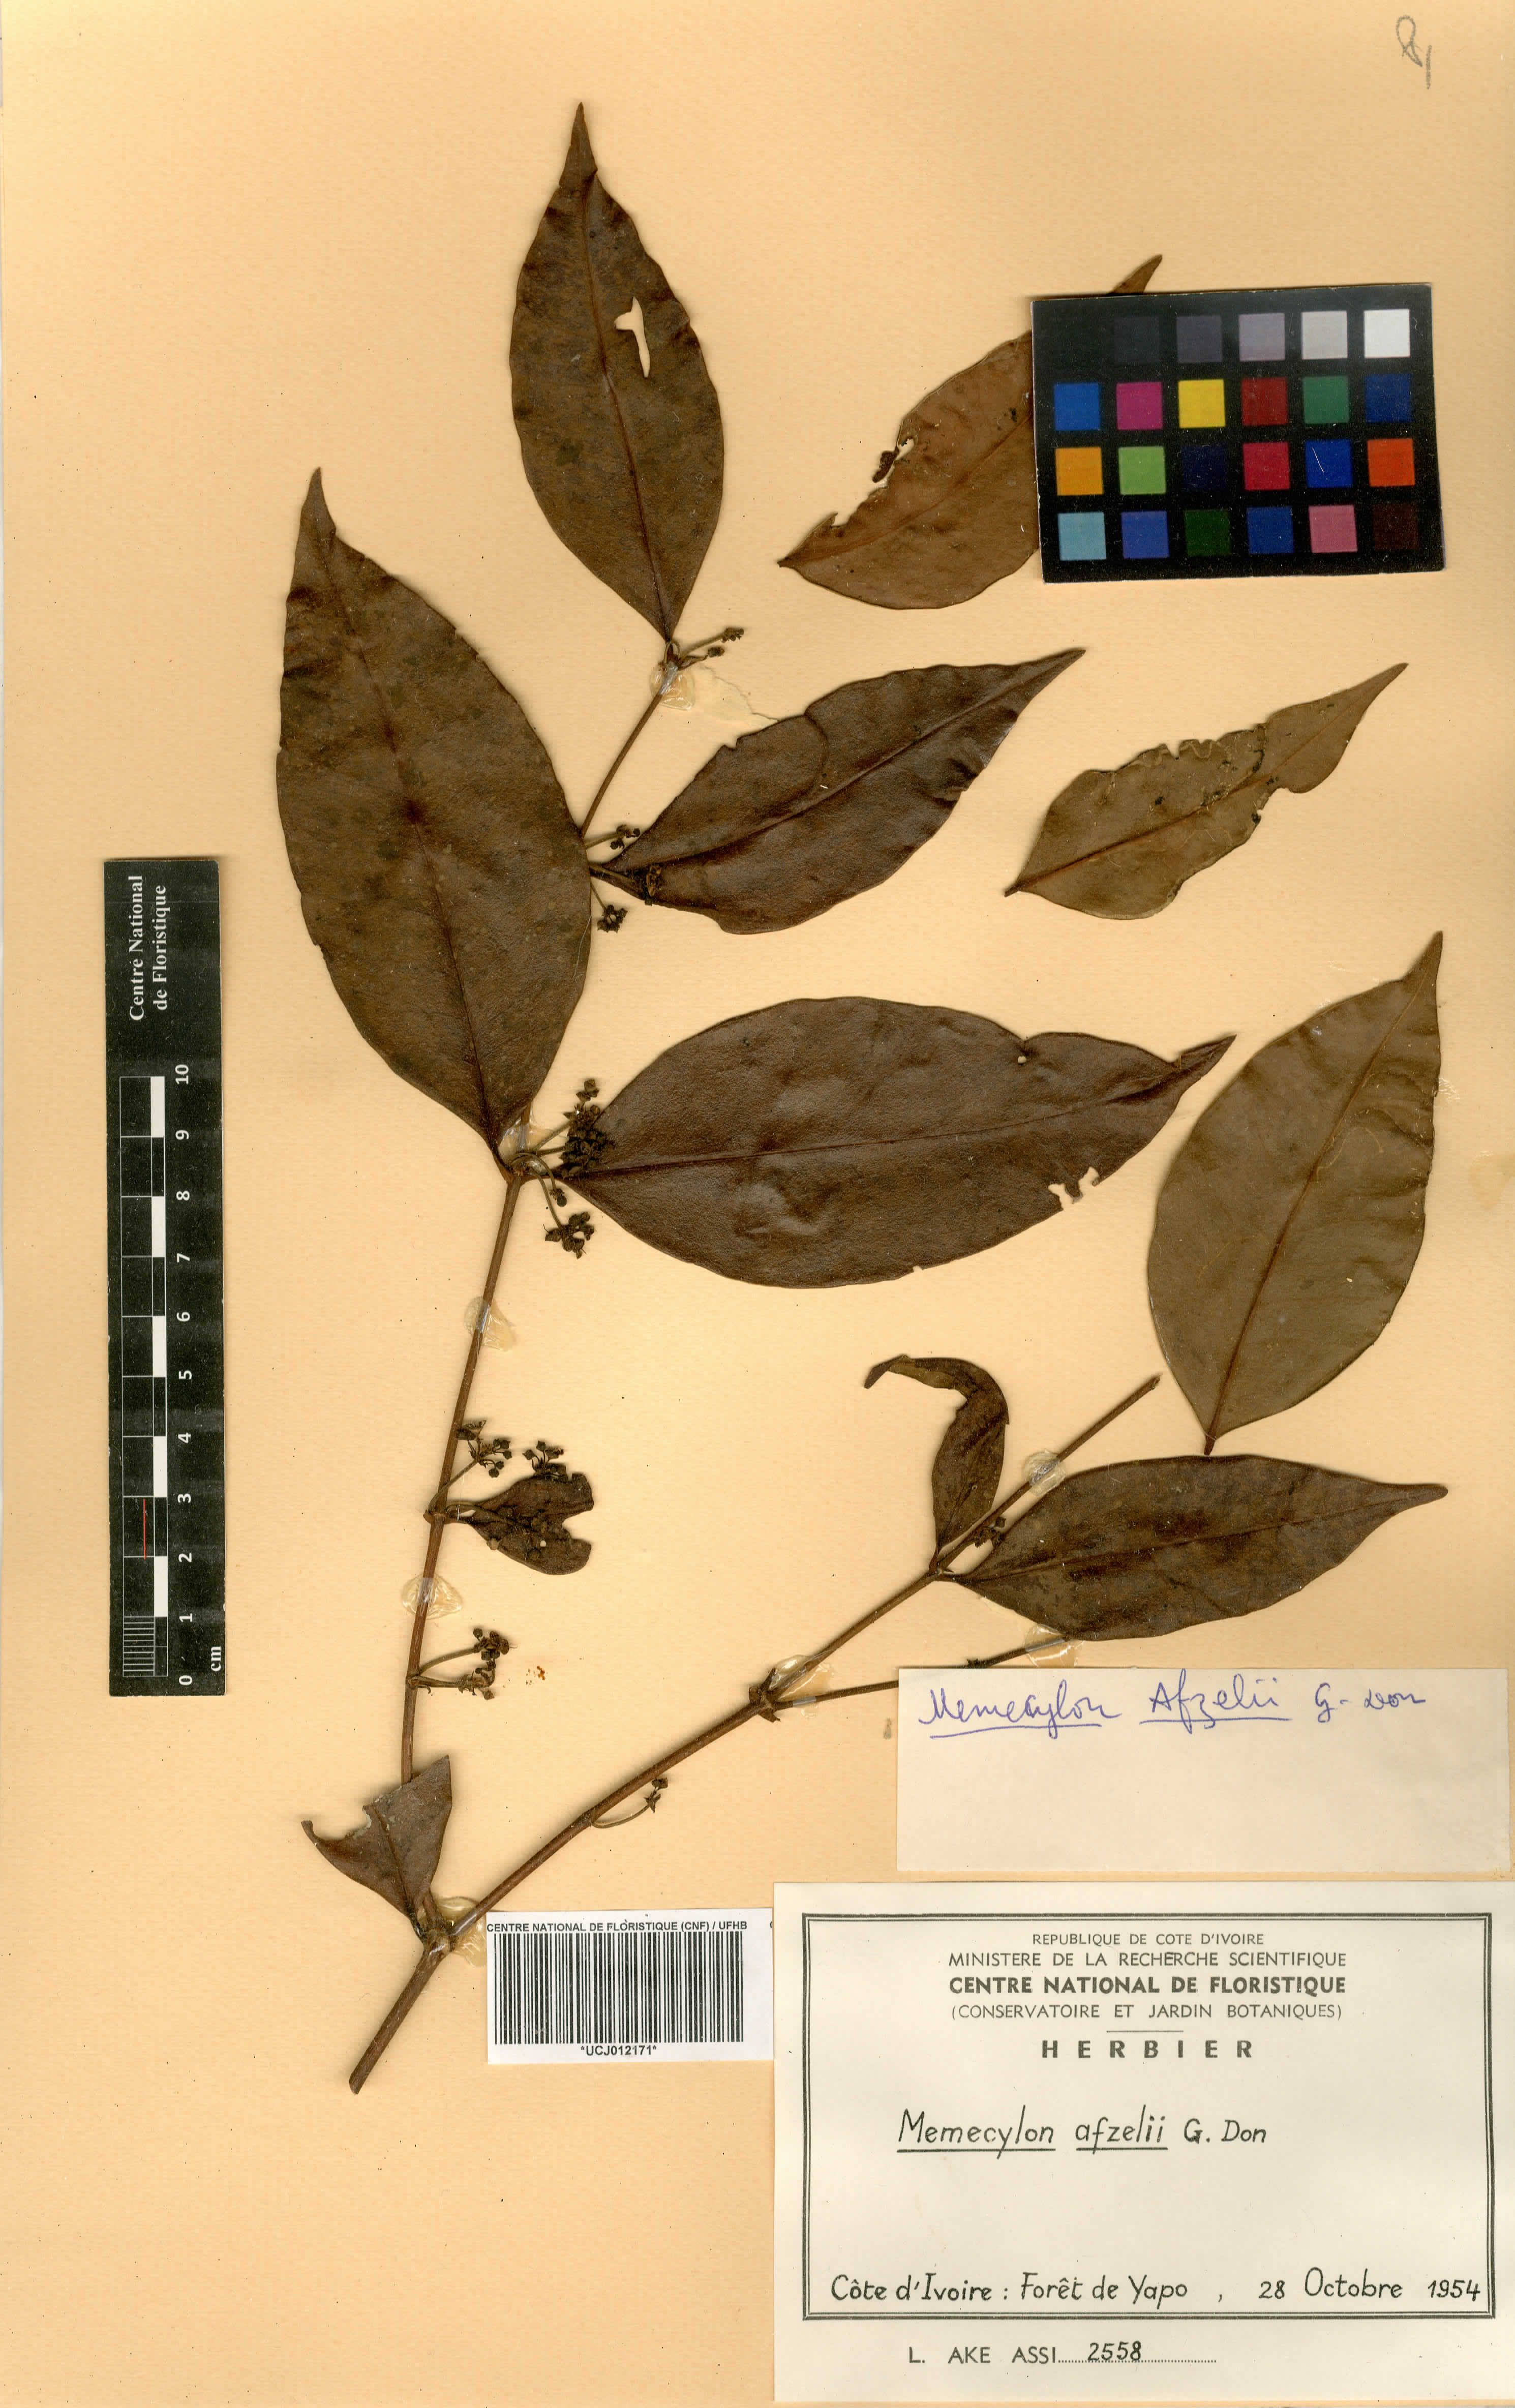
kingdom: Plantae
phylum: Tracheophyta
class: Magnoliopsida
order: Myrtales
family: Melastomataceae
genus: Memecylon
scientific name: Memecylon afzelii
